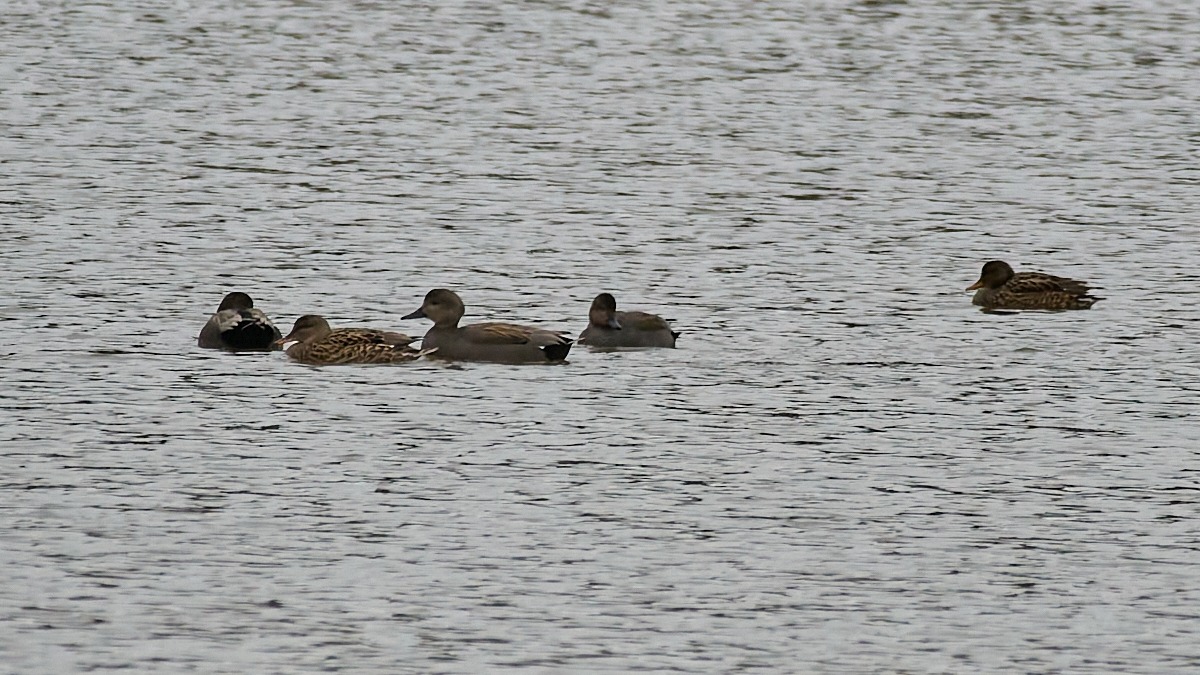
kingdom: Animalia
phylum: Chordata
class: Aves
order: Anseriformes
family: Anatidae
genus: Mareca
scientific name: Mareca strepera
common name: Knarand
